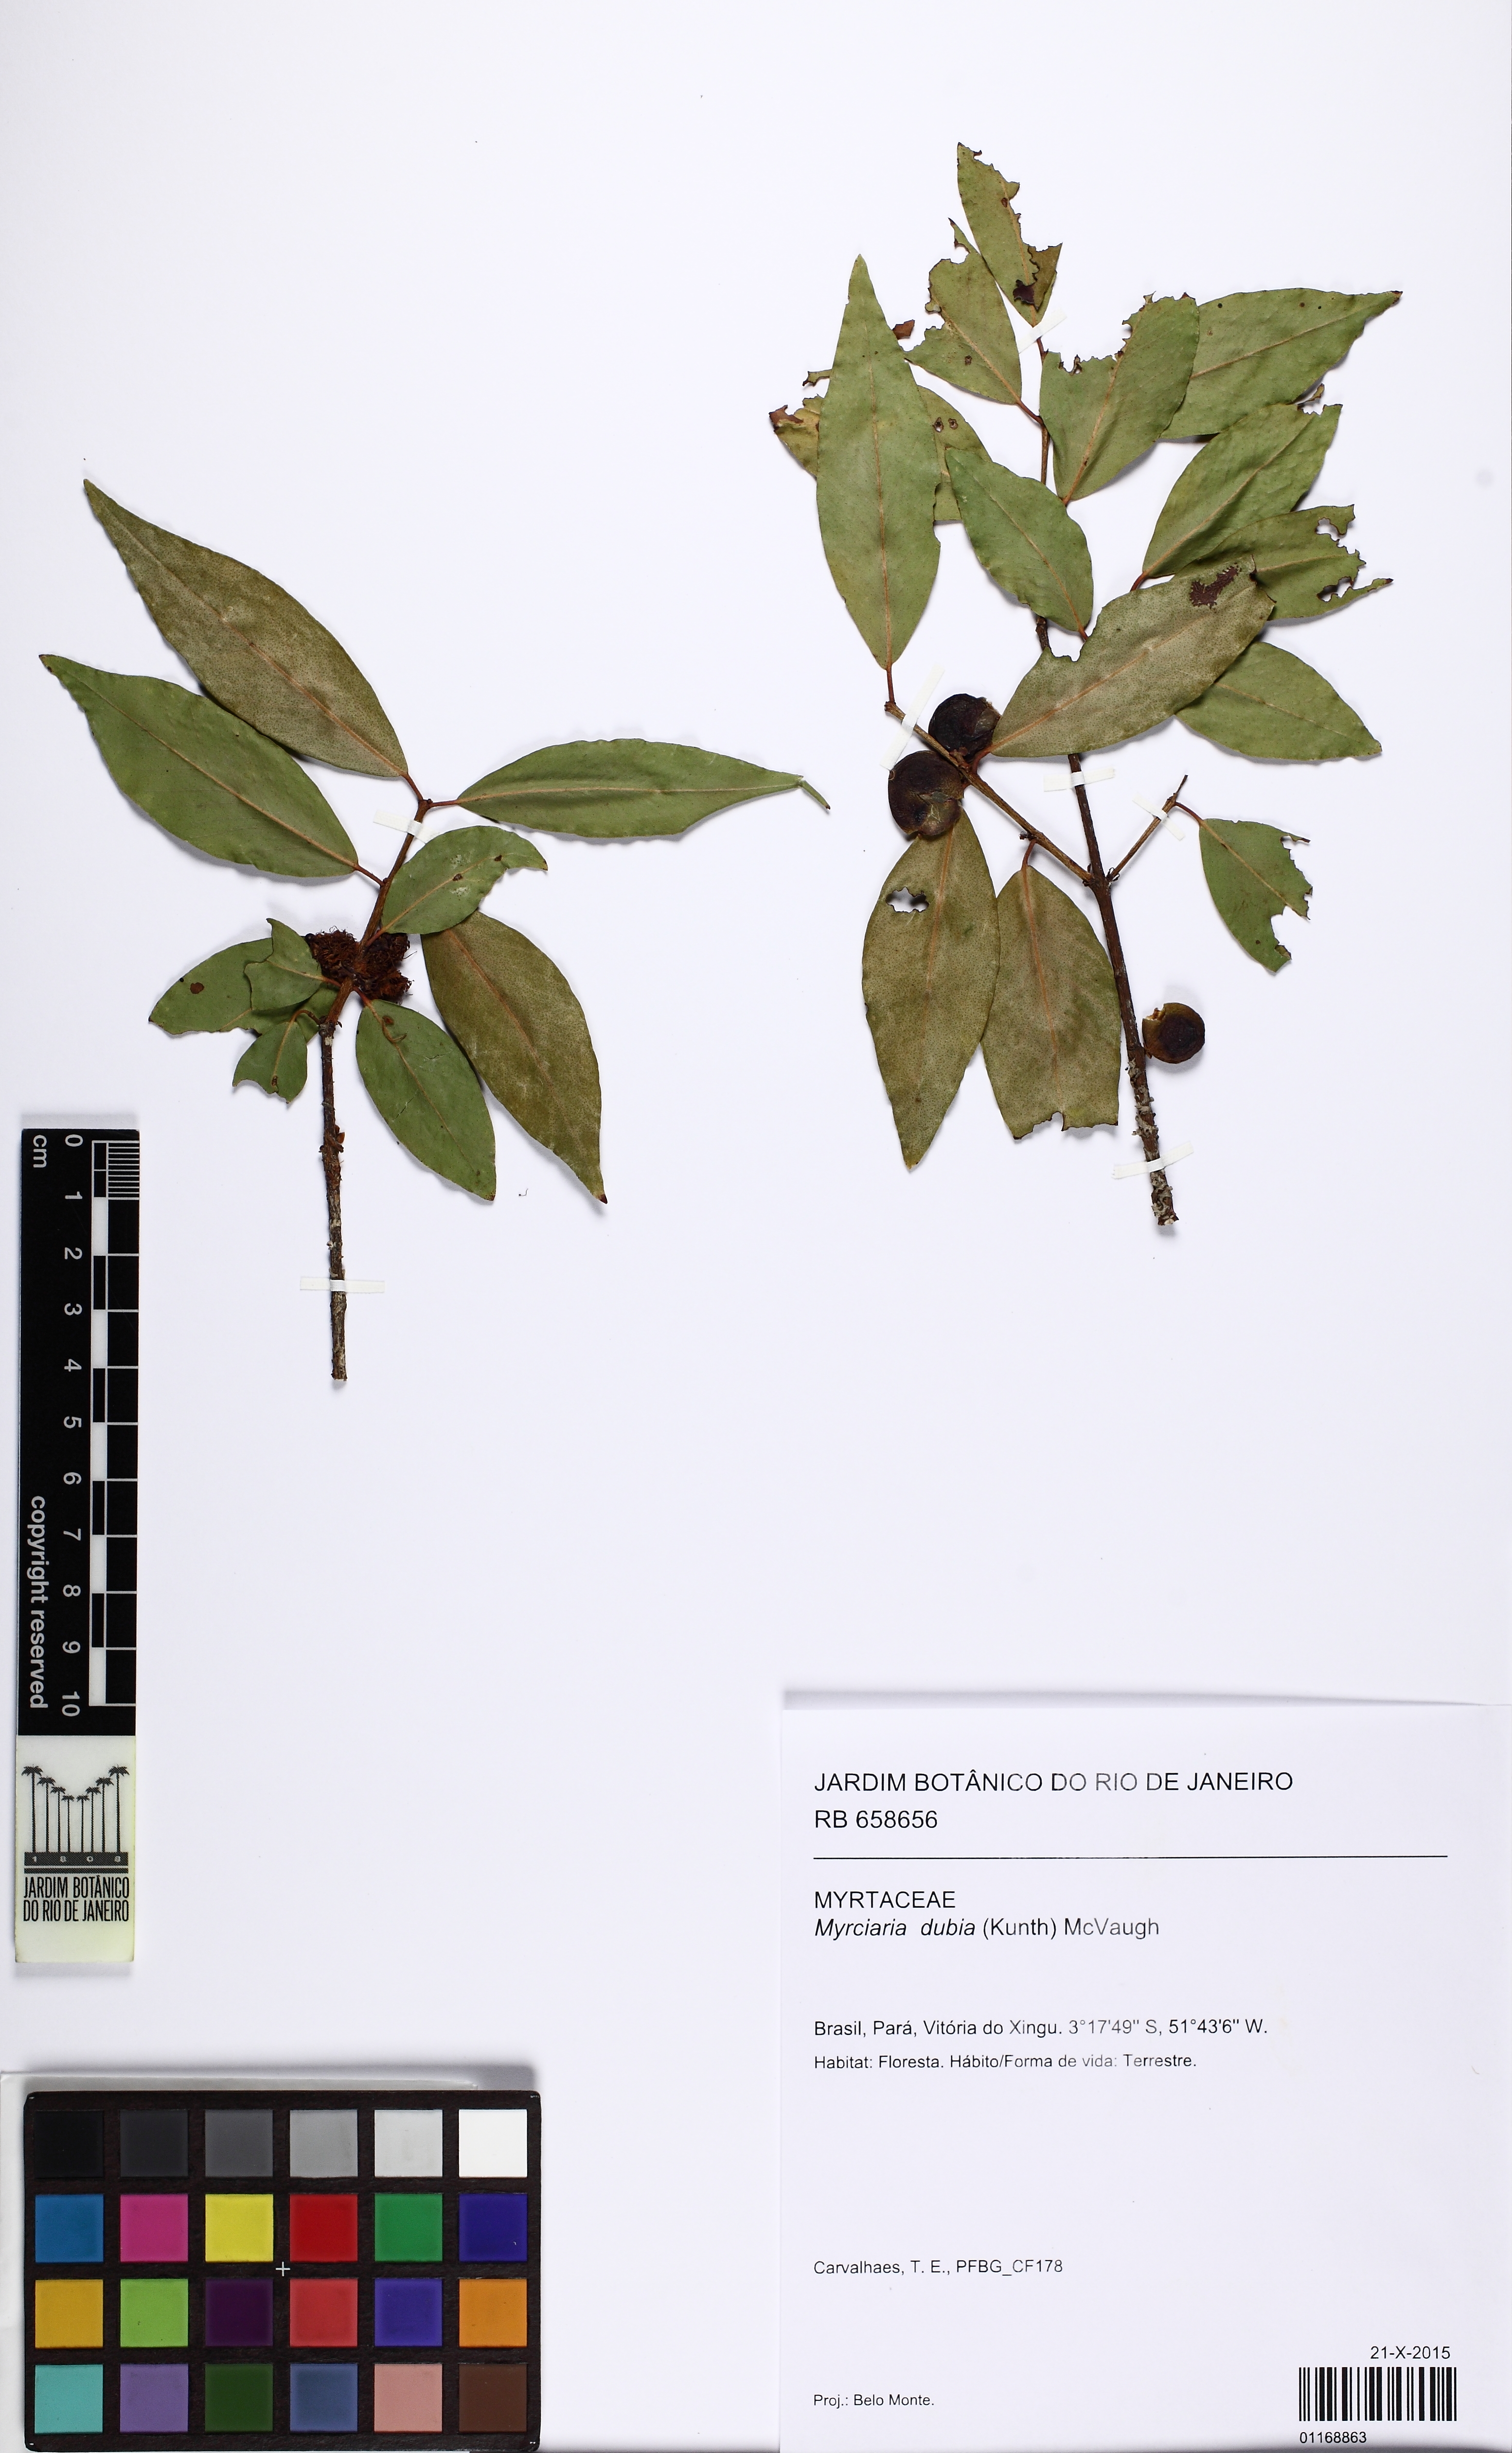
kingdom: Plantae
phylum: Tracheophyta
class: Magnoliopsida
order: Myrtales
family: Myrtaceae
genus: Myrciaria
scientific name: Myrciaria dubia
